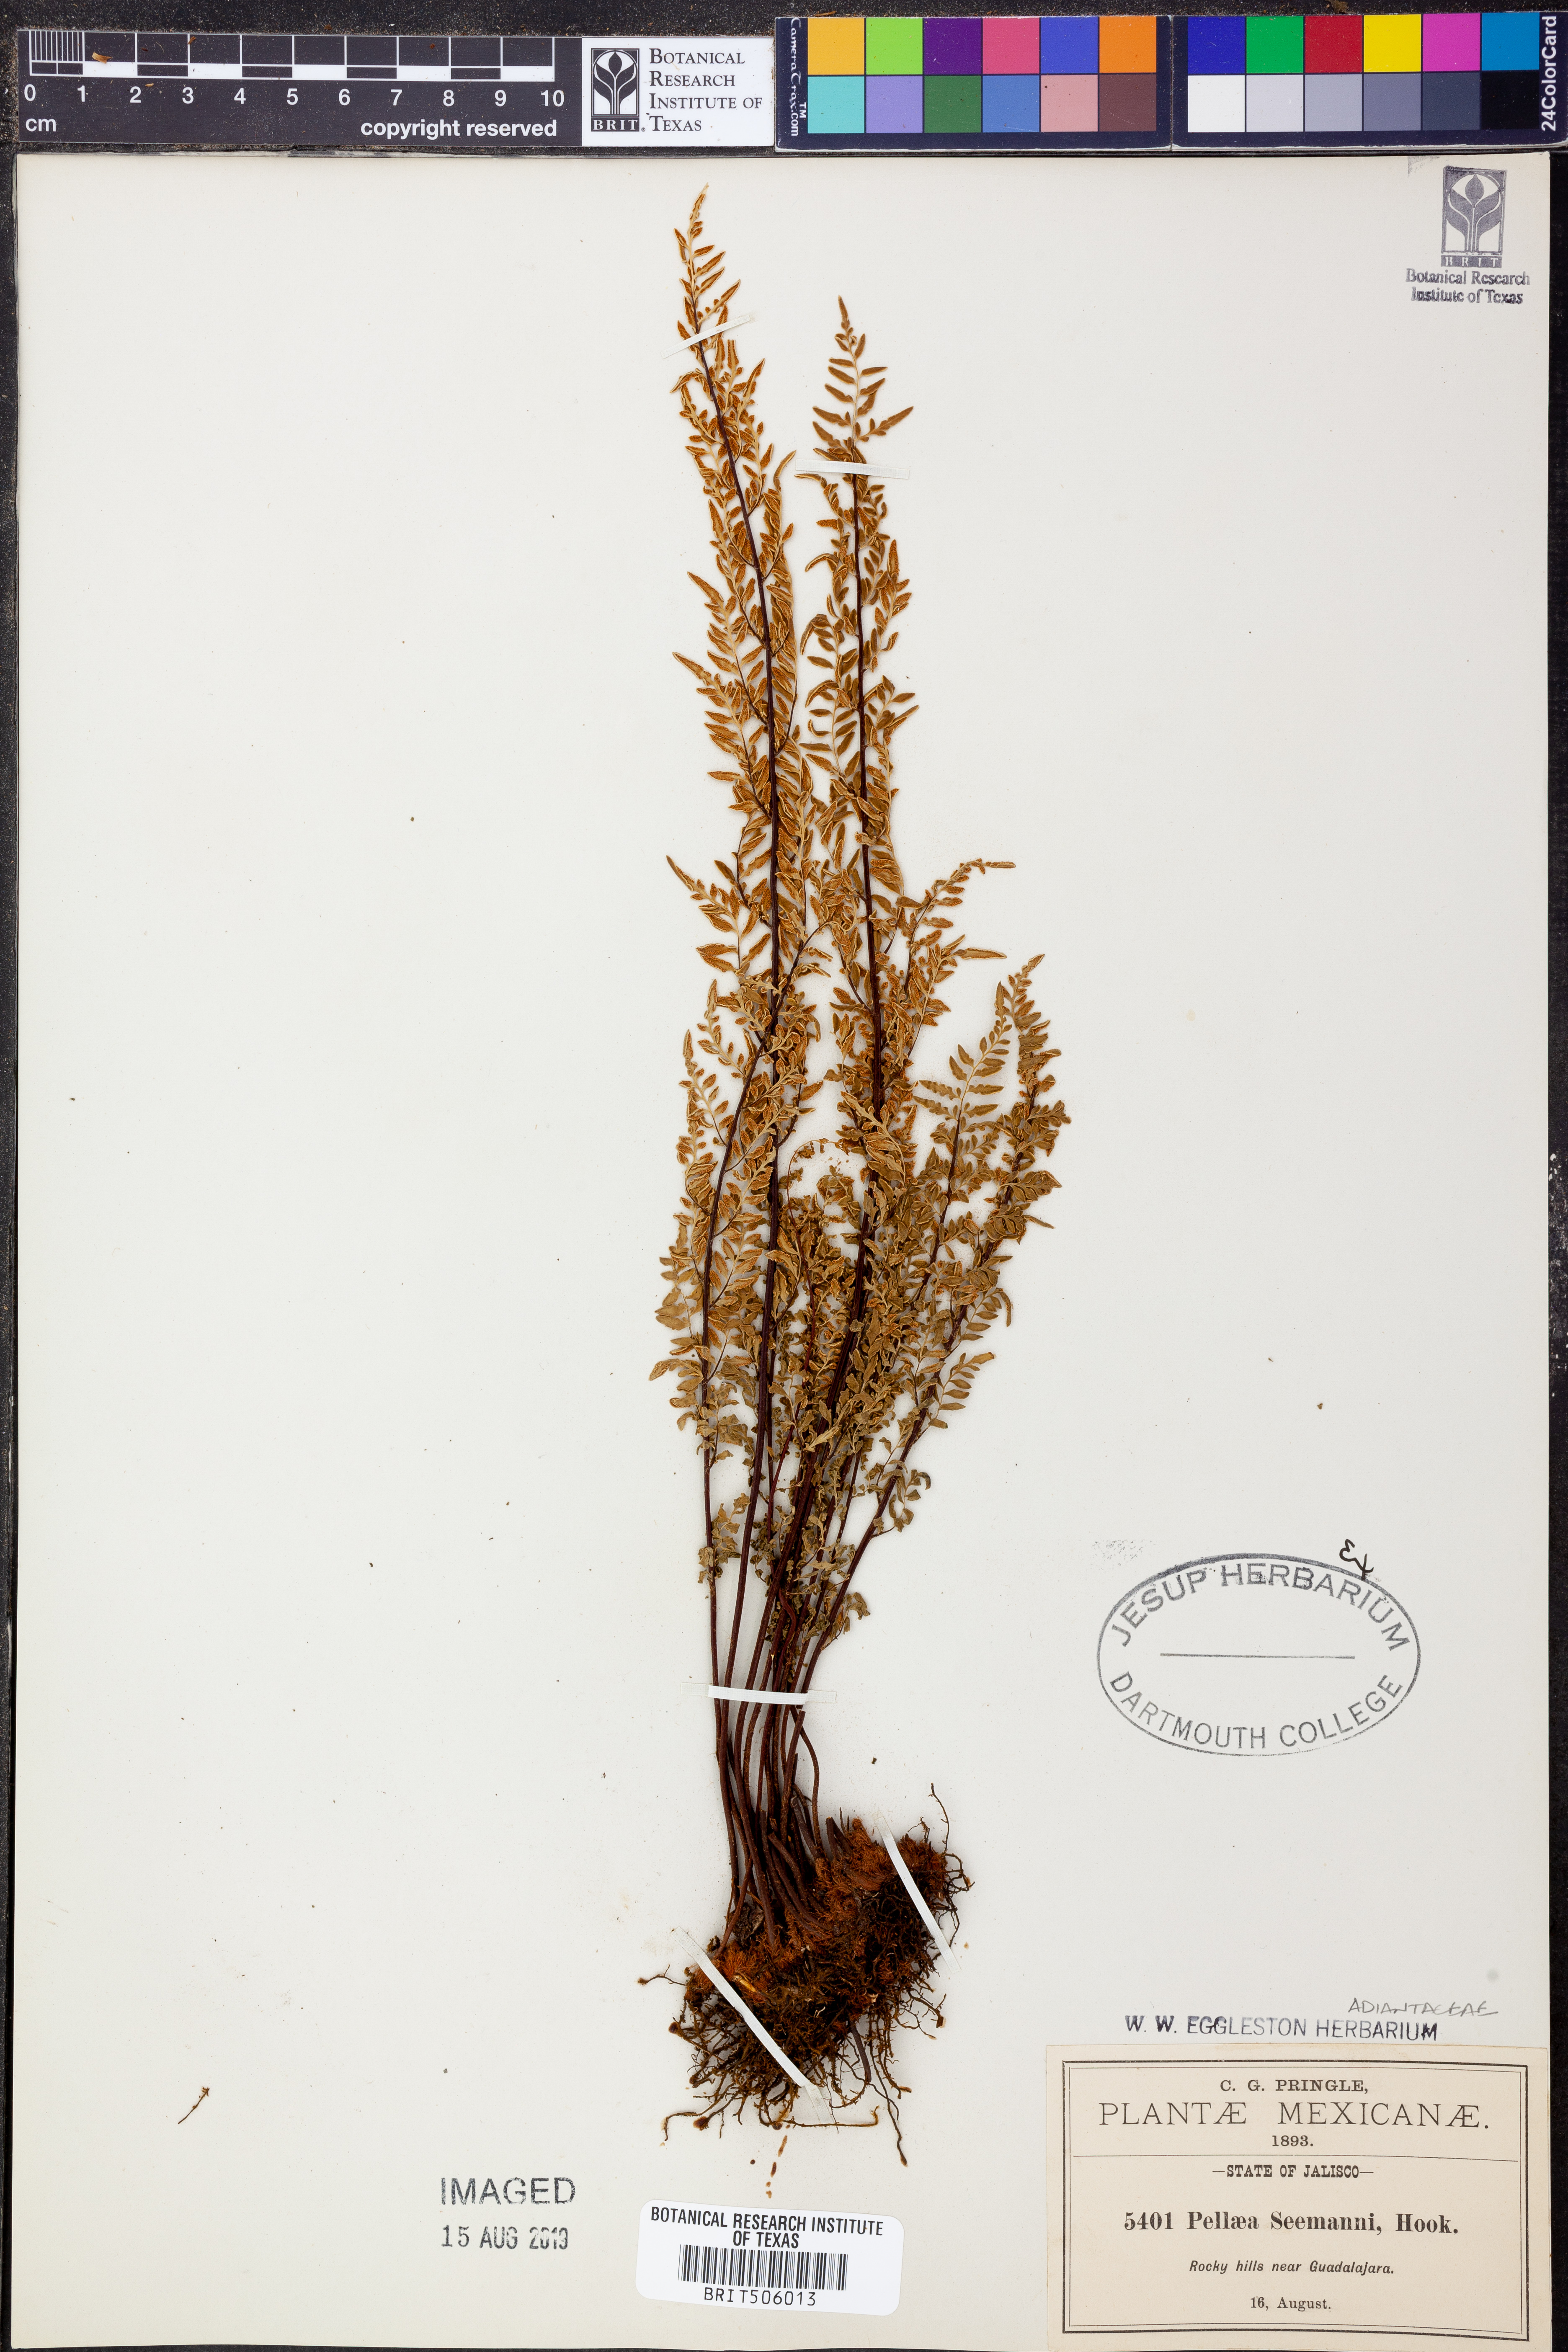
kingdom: Plantae
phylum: Tracheophyta
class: Polypodiopsida
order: Polypodiales
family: Pteridaceae
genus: Cheilanthes
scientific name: Cheilanthes lozanoi
